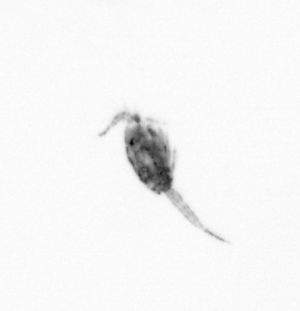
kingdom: Animalia
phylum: Arthropoda
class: Copepoda
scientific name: Copepoda
